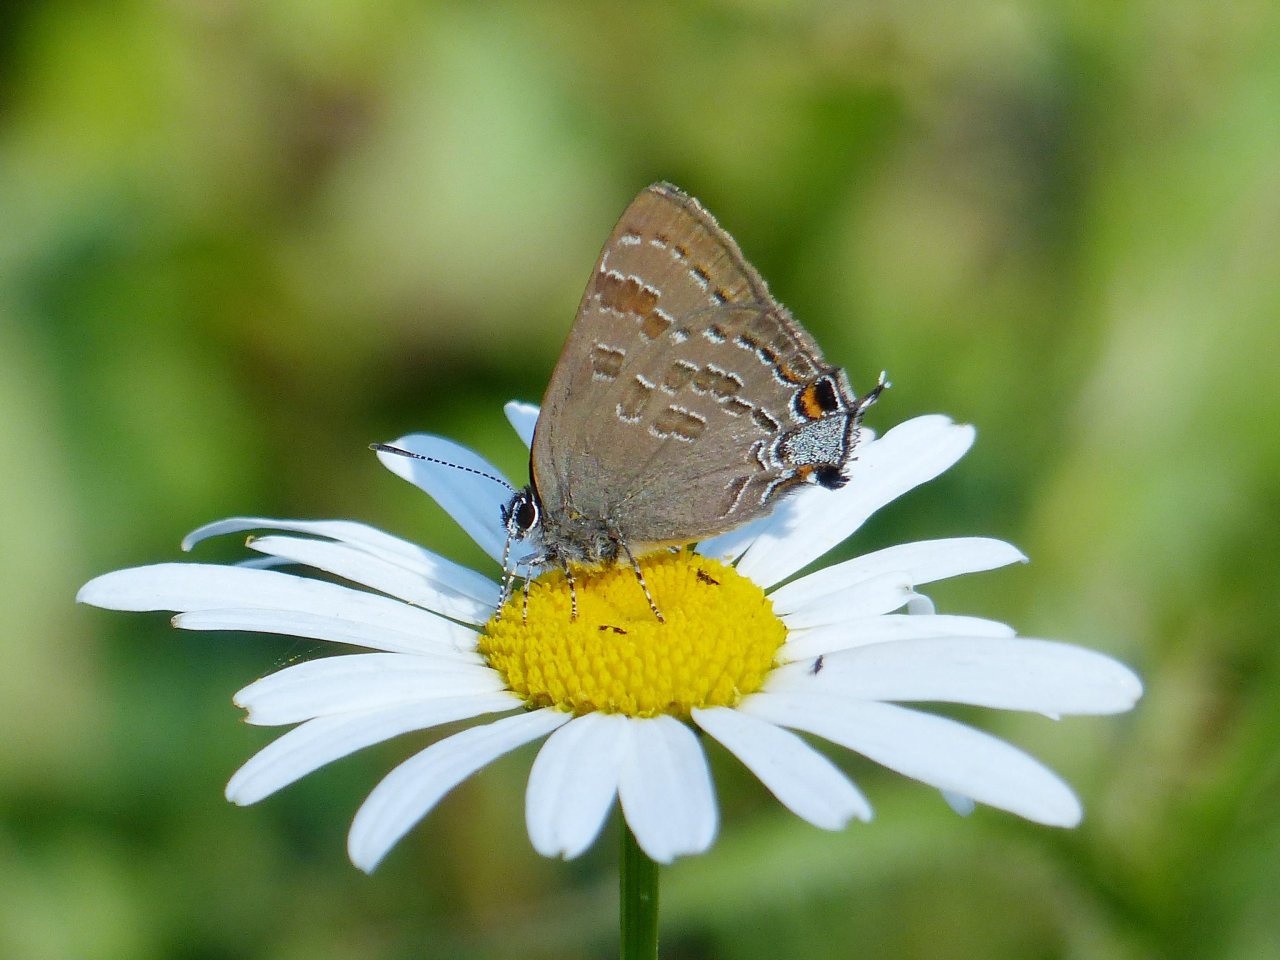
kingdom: Animalia
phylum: Arthropoda
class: Insecta
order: Lepidoptera
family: Lycaenidae
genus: Strymon
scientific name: Strymon caryaevorus
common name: Hickory Hairstreak
